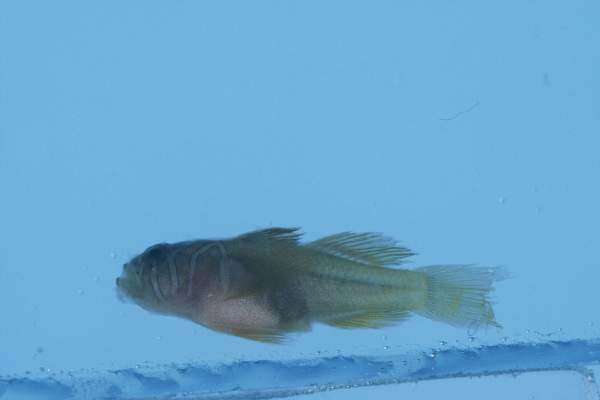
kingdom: Animalia
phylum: Chordata
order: Perciformes
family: Gobiidae
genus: Priolepis
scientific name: Priolepis compita
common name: Crossroads goby
